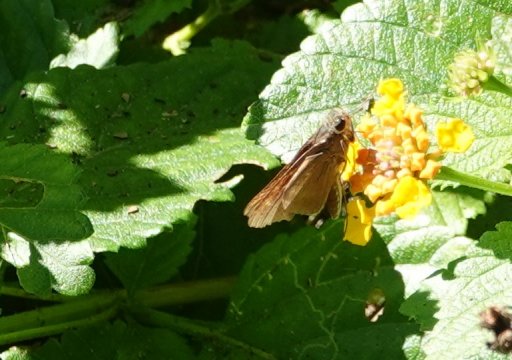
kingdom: Animalia
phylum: Arthropoda
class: Insecta
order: Lepidoptera
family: Hesperiidae
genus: Panoquina
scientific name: Panoquina ocola
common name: Ocola Skipper
